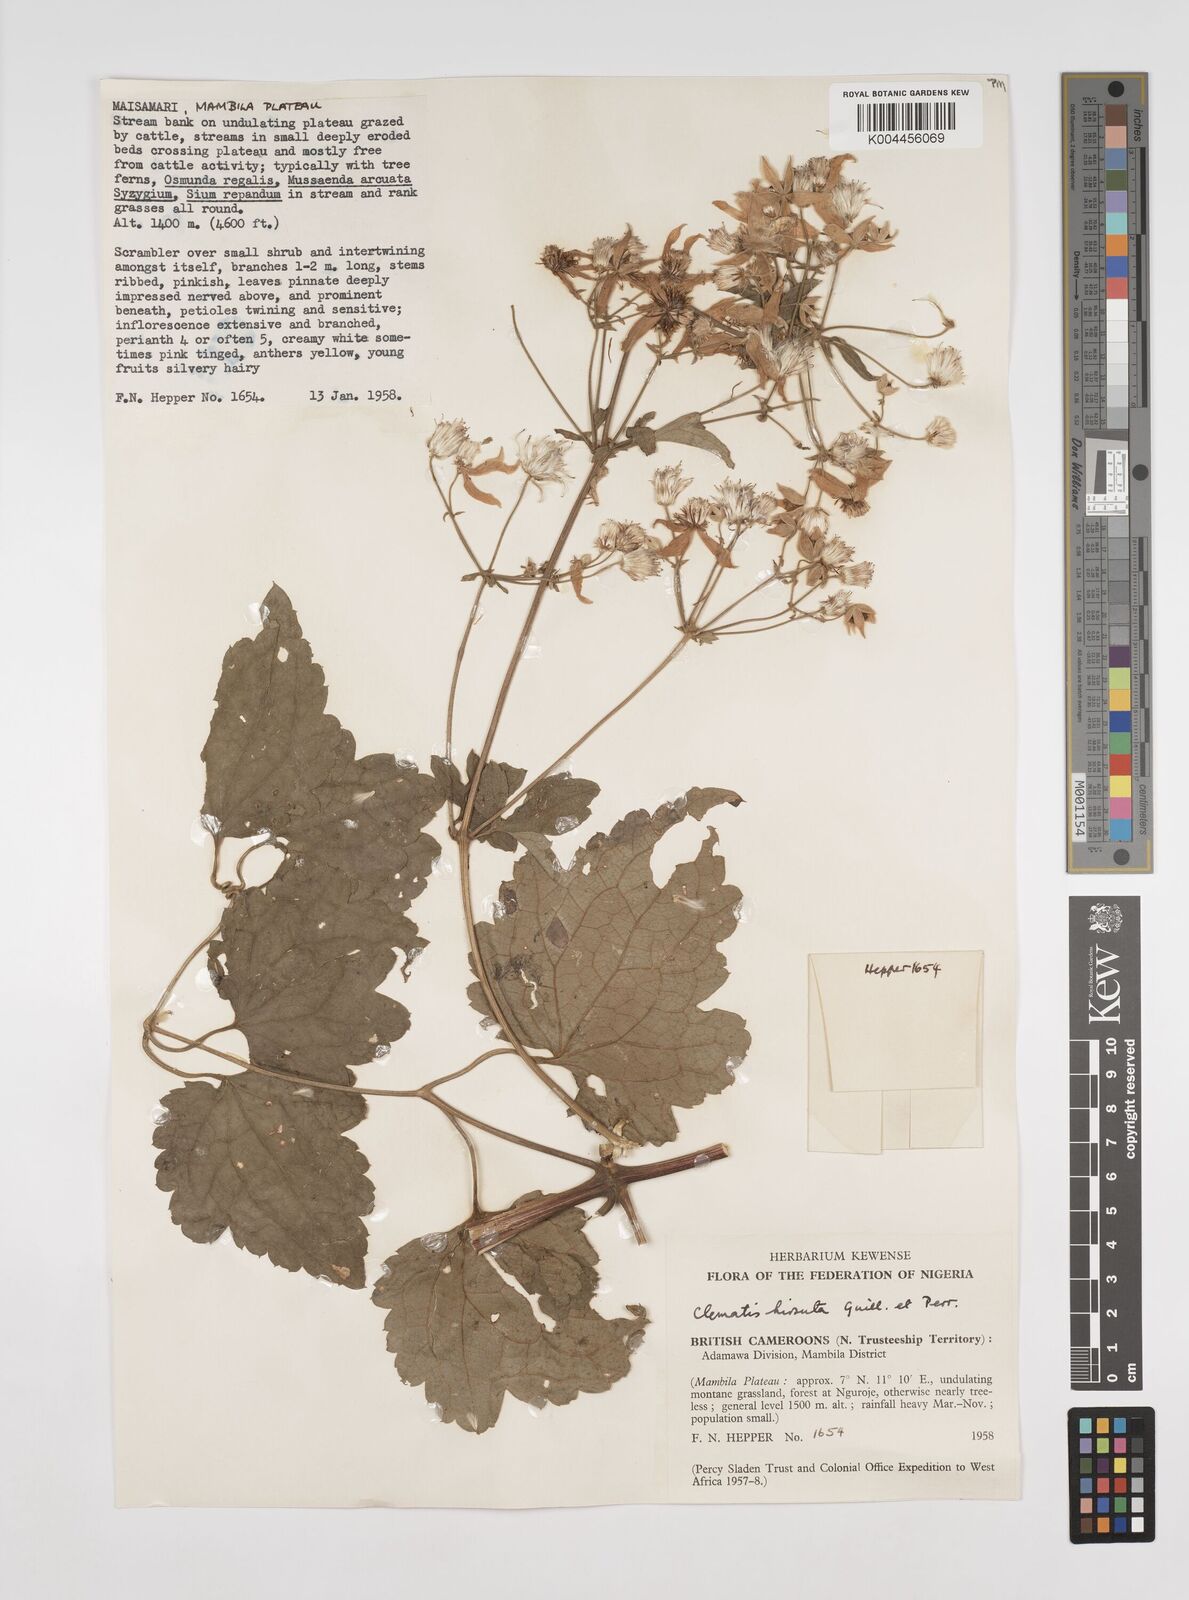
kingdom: Plantae
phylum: Tracheophyta
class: Magnoliopsida
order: Ranunculales
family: Ranunculaceae
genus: Clematis
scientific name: Clematis hirsuta
